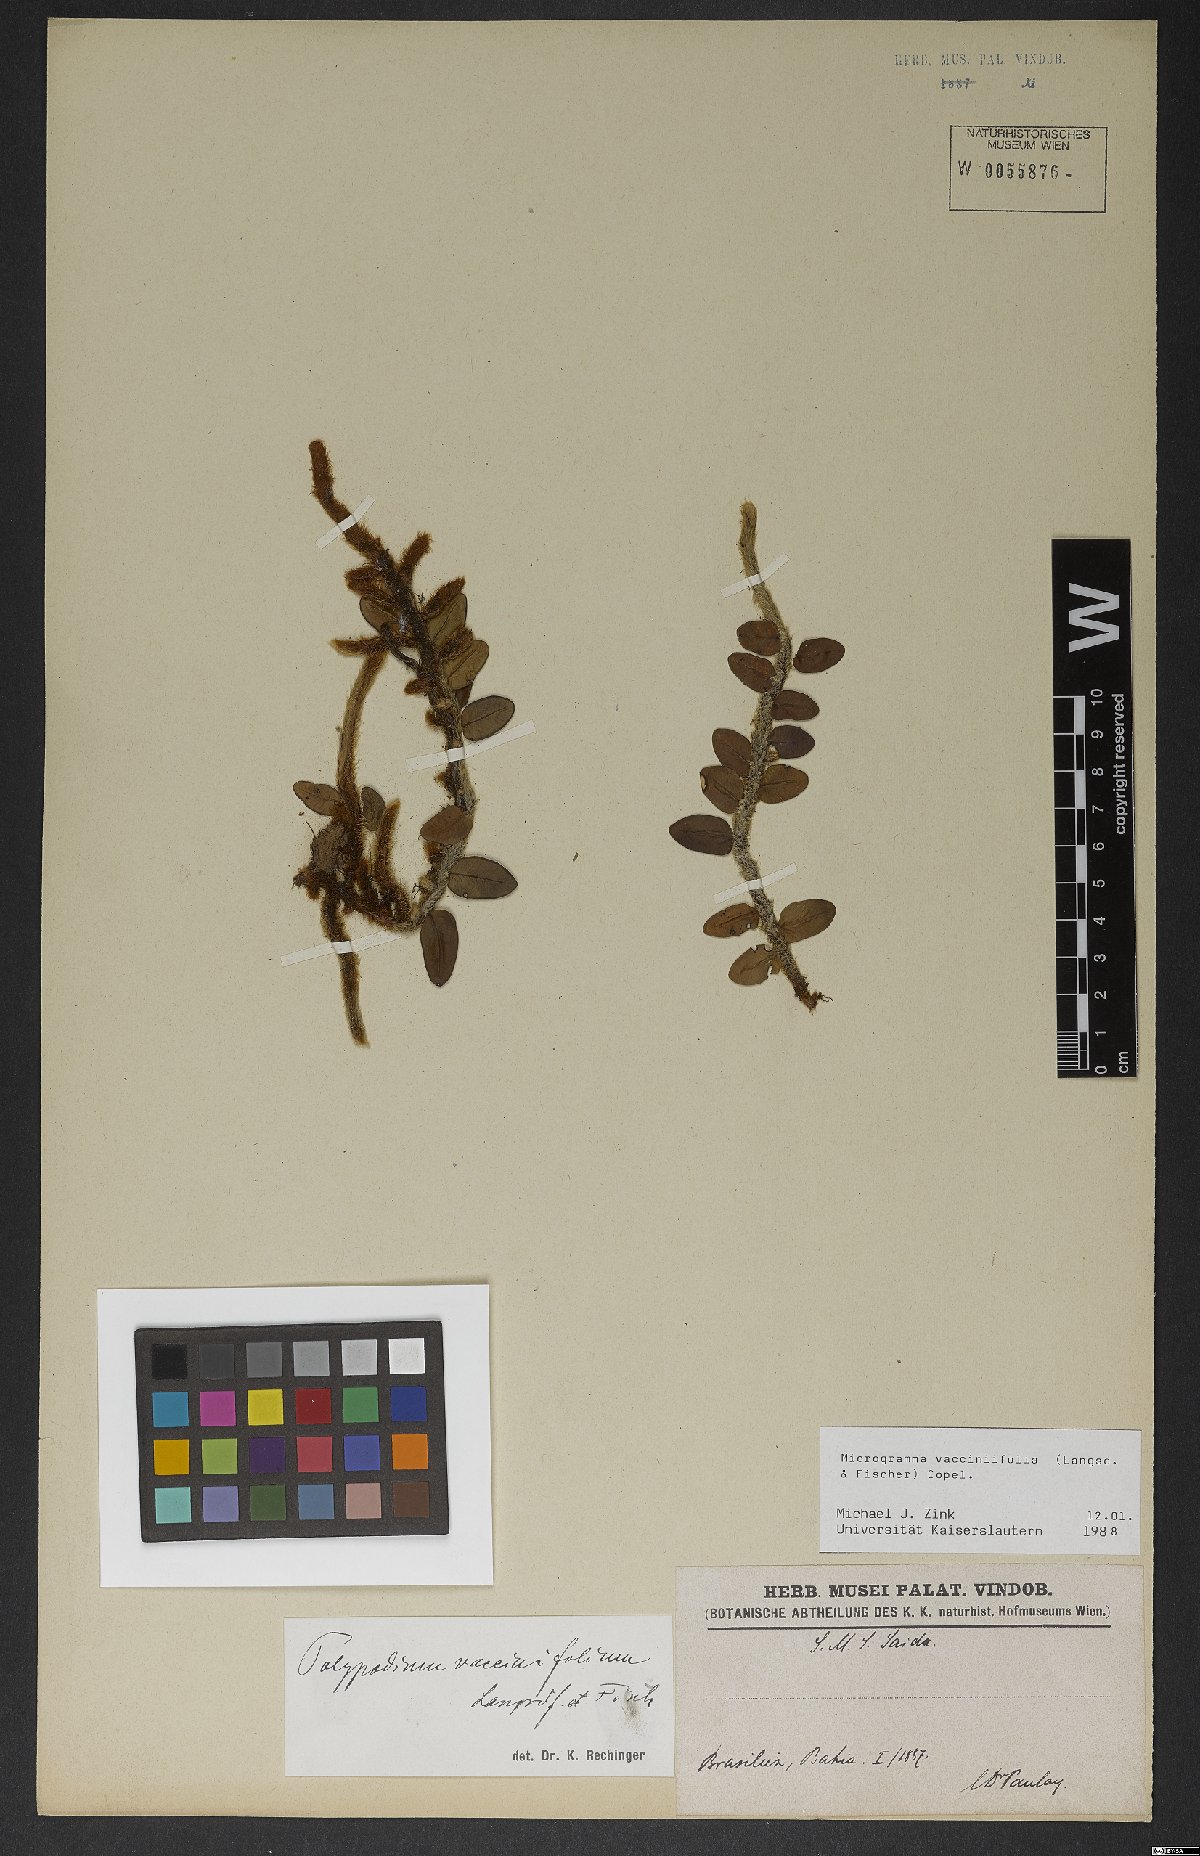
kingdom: Plantae
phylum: Tracheophyta
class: Polypodiopsida
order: Polypodiales
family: Polypodiaceae
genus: Microgramma
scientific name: Microgramma vaccinifolia
